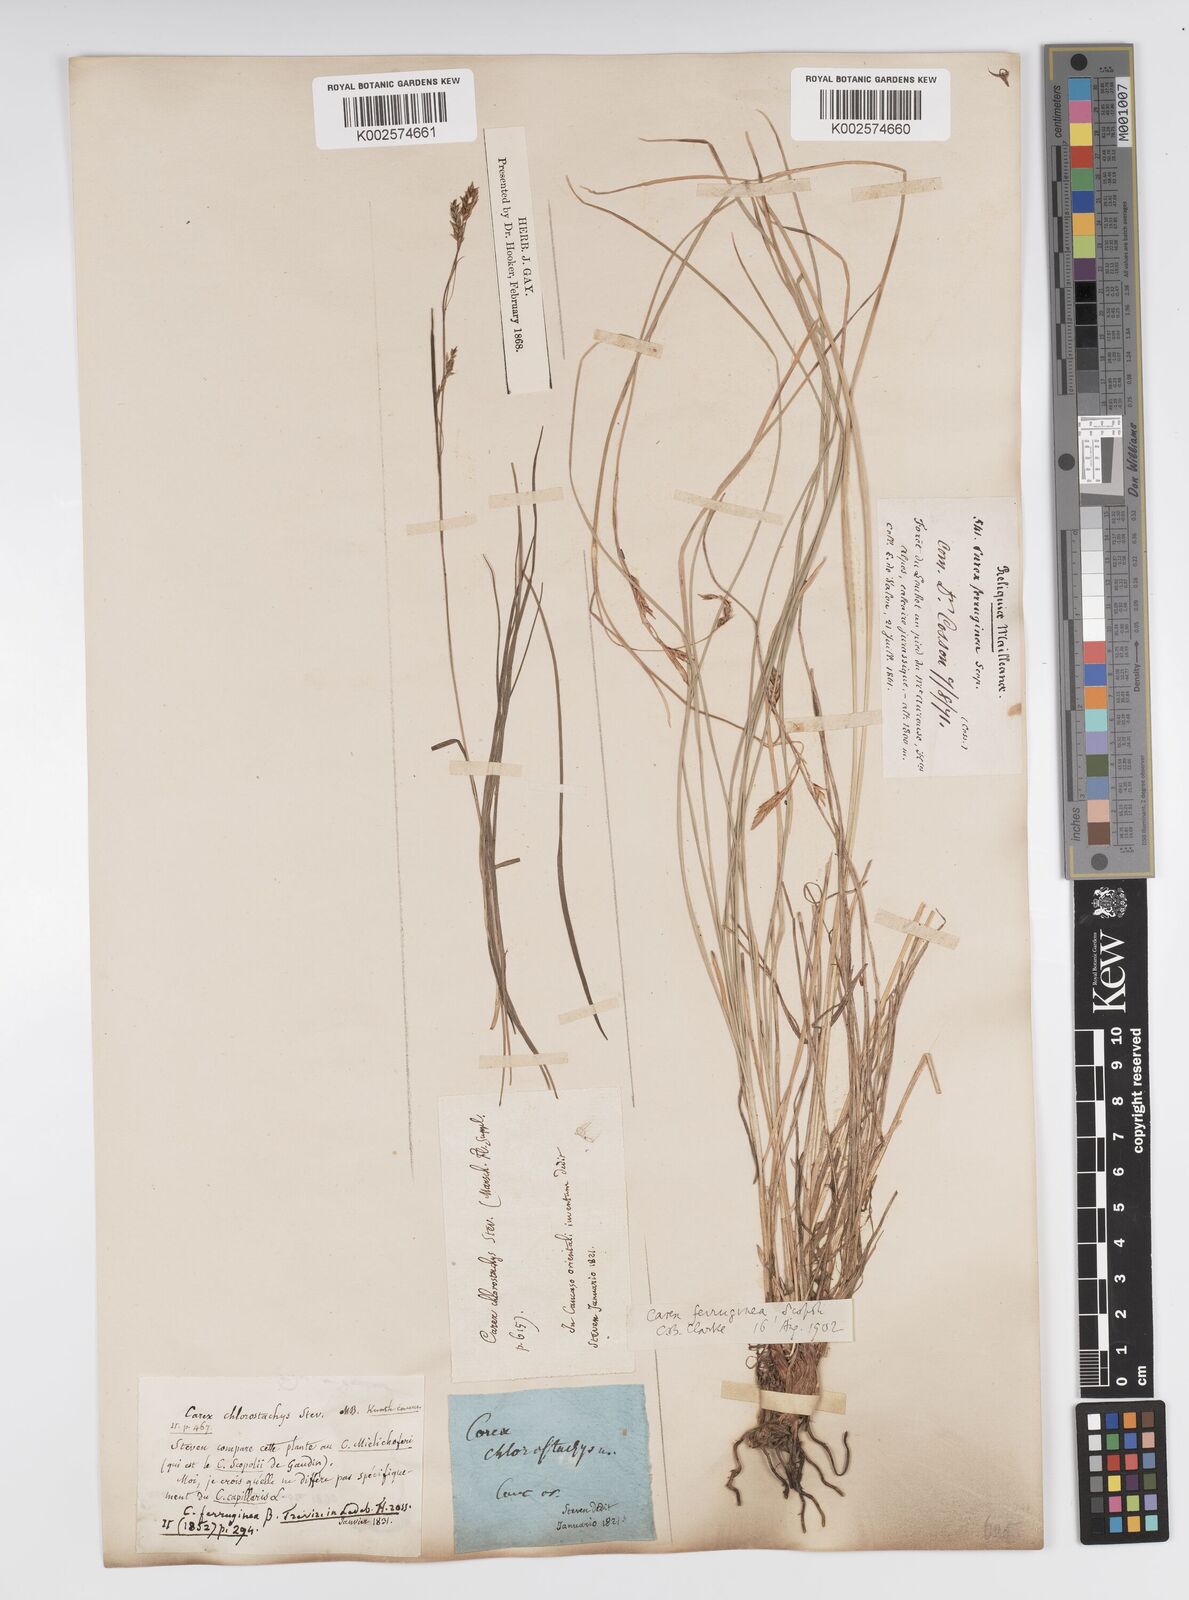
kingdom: Plantae
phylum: Tracheophyta
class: Liliopsida
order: Poales
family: Cyperaceae
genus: Carex
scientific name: Carex ferruginea
